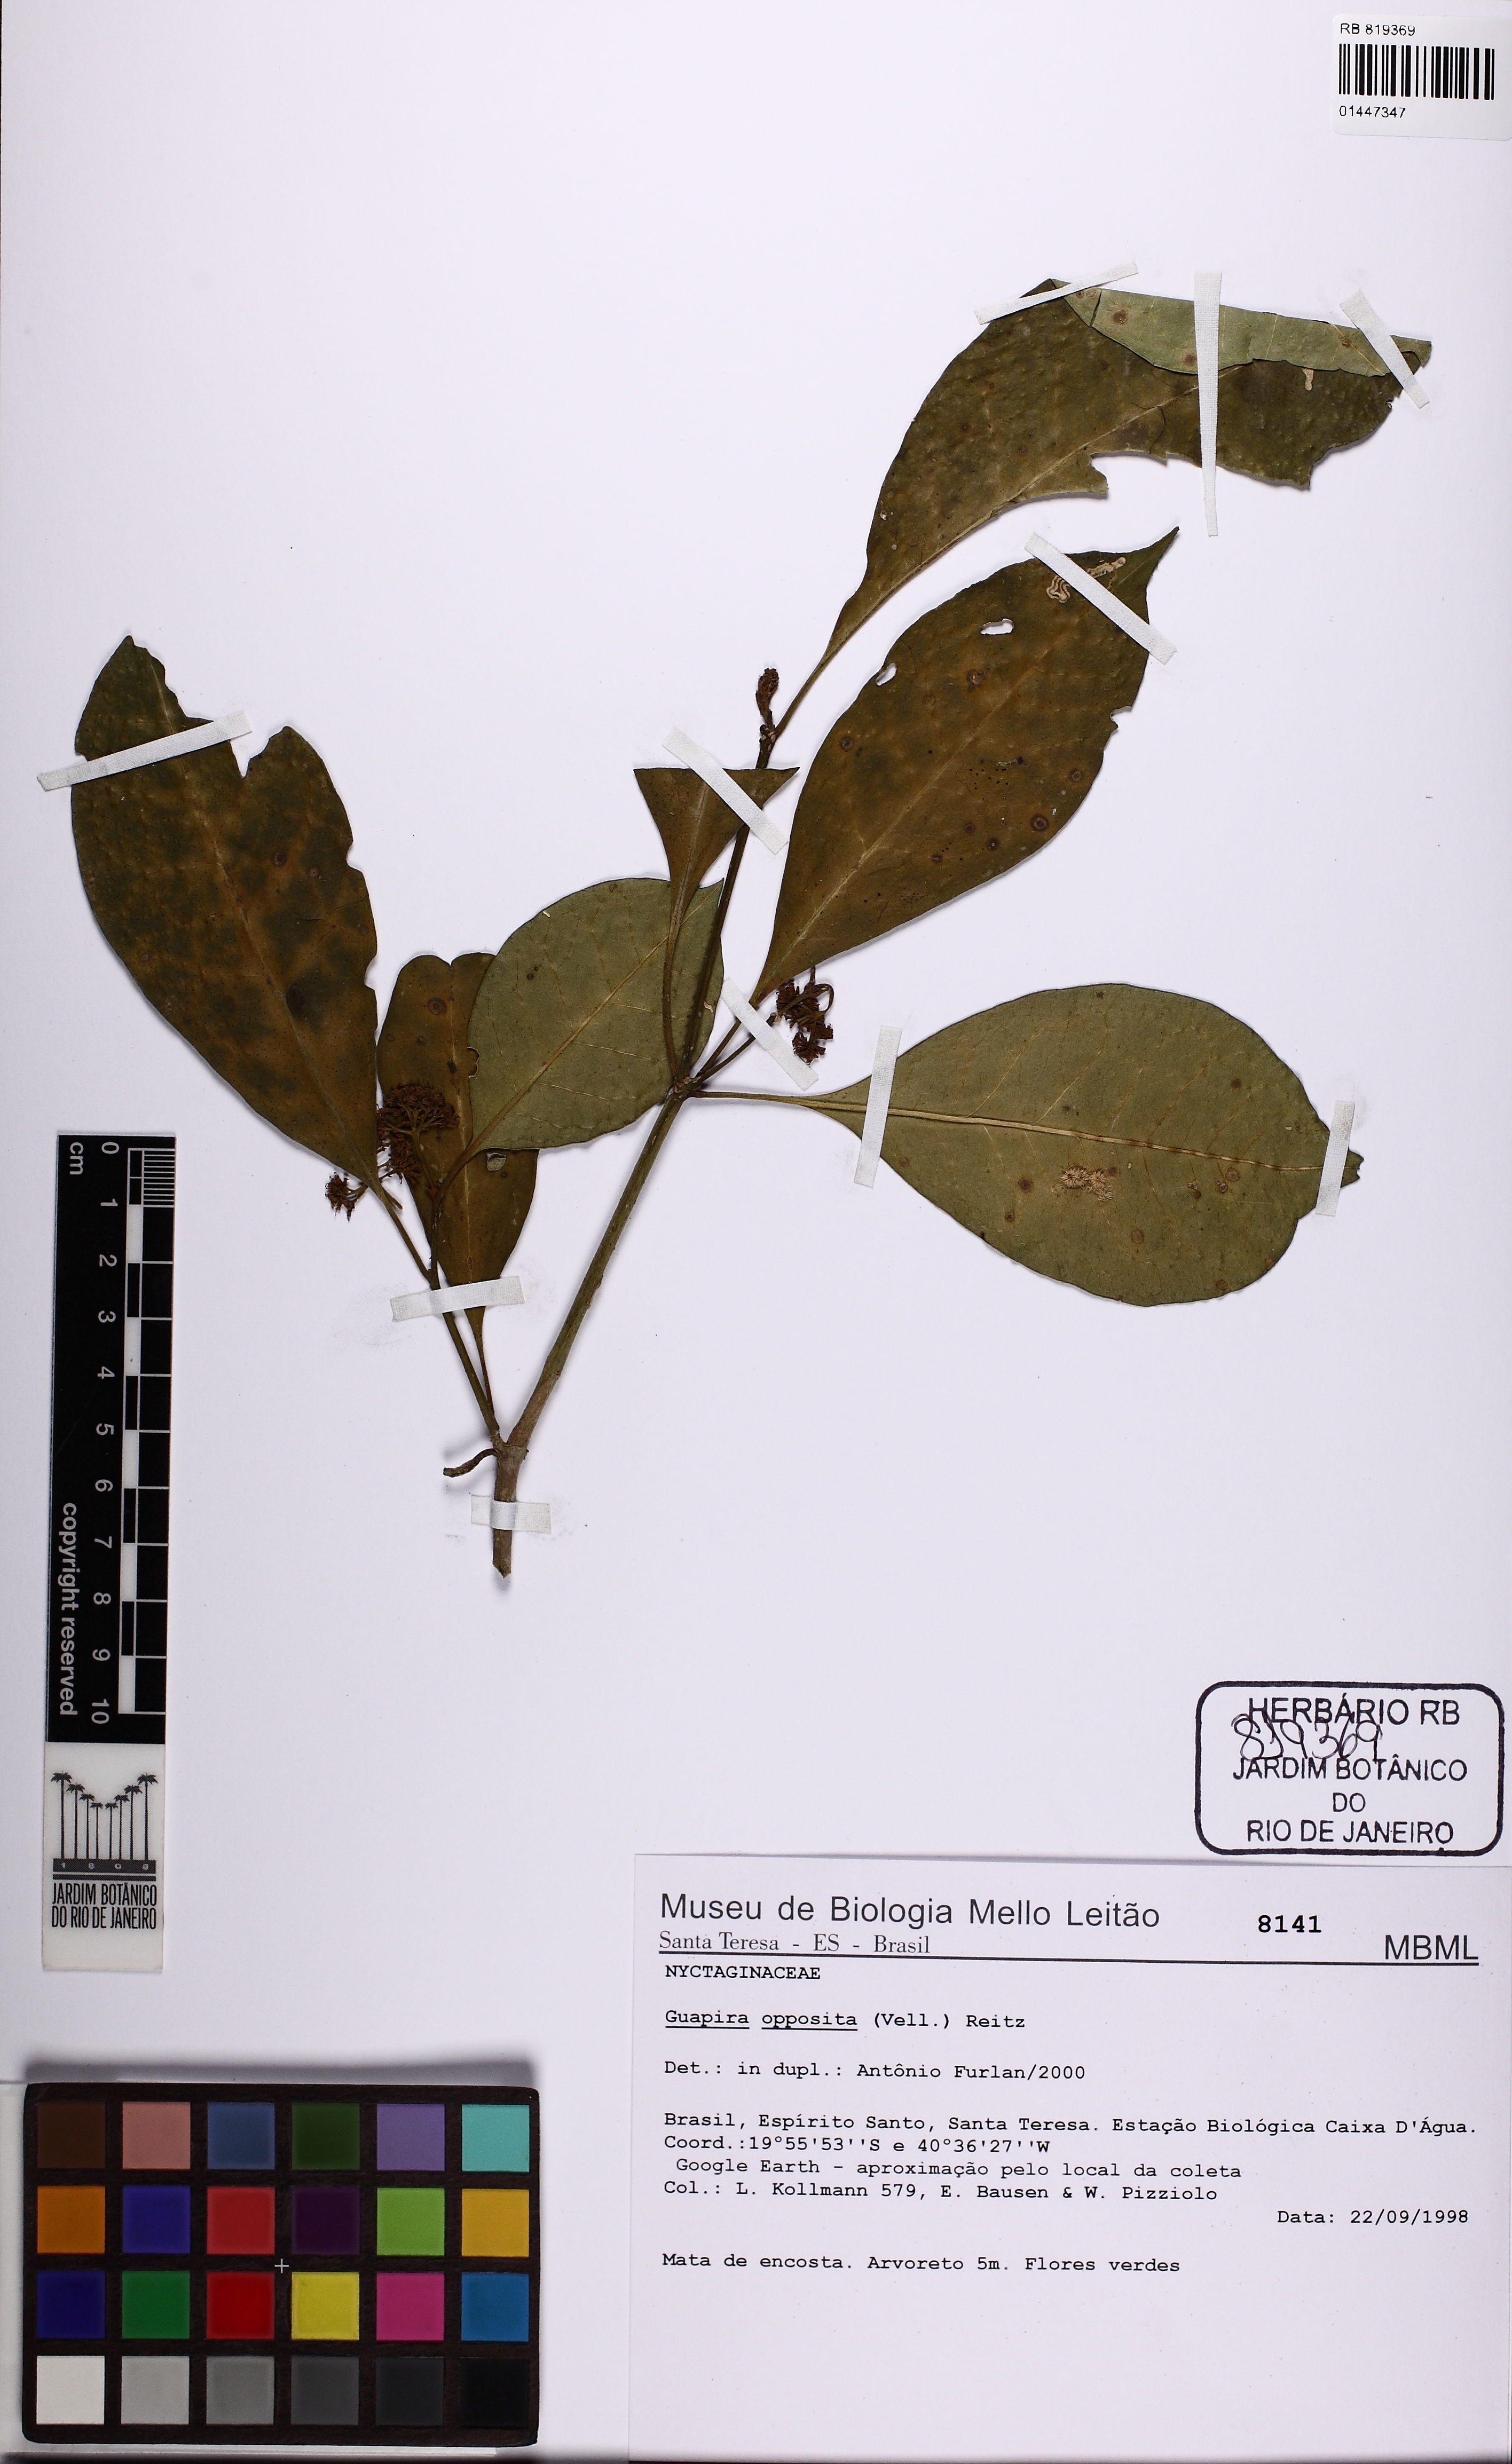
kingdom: Plantae
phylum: Tracheophyta
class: Magnoliopsida
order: Caryophyllales
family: Nyctaginaceae
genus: Guapira
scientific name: Guapira opposita
